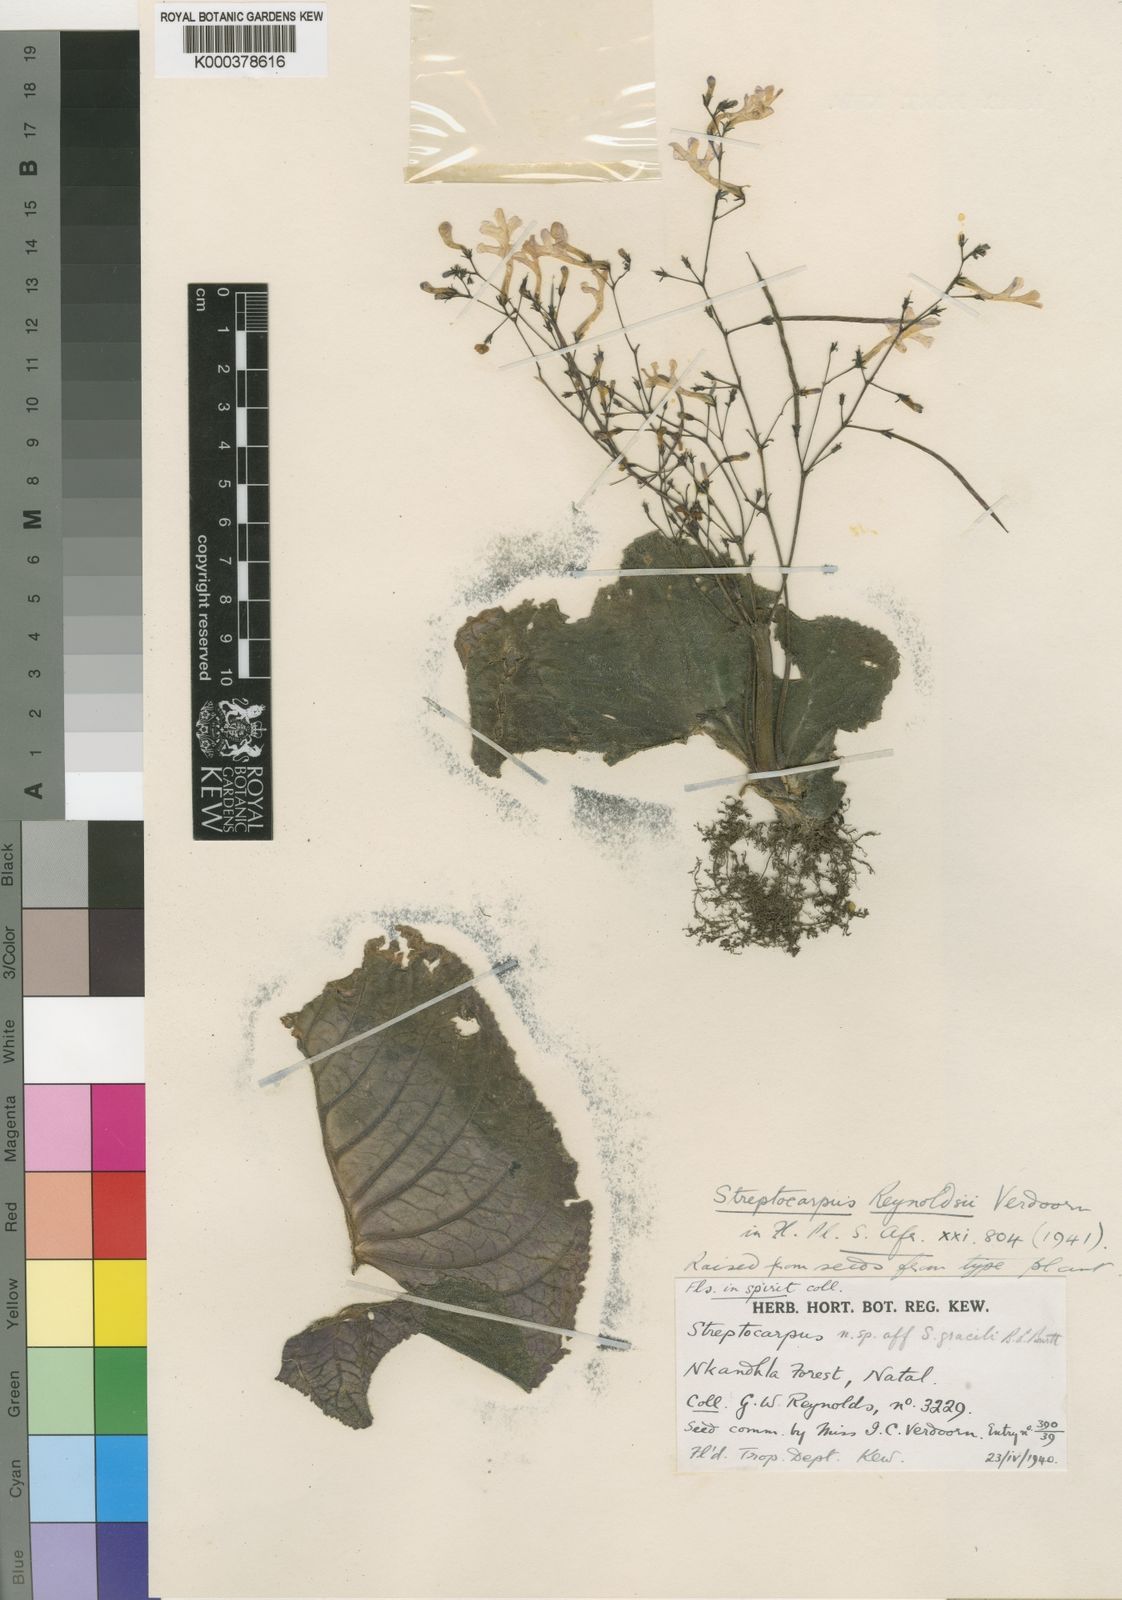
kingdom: Plantae
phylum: Tracheophyta
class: Magnoliopsida
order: Lamiales
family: Gesneriaceae
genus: Streptocarpus
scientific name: Streptocarpus haygarthii
